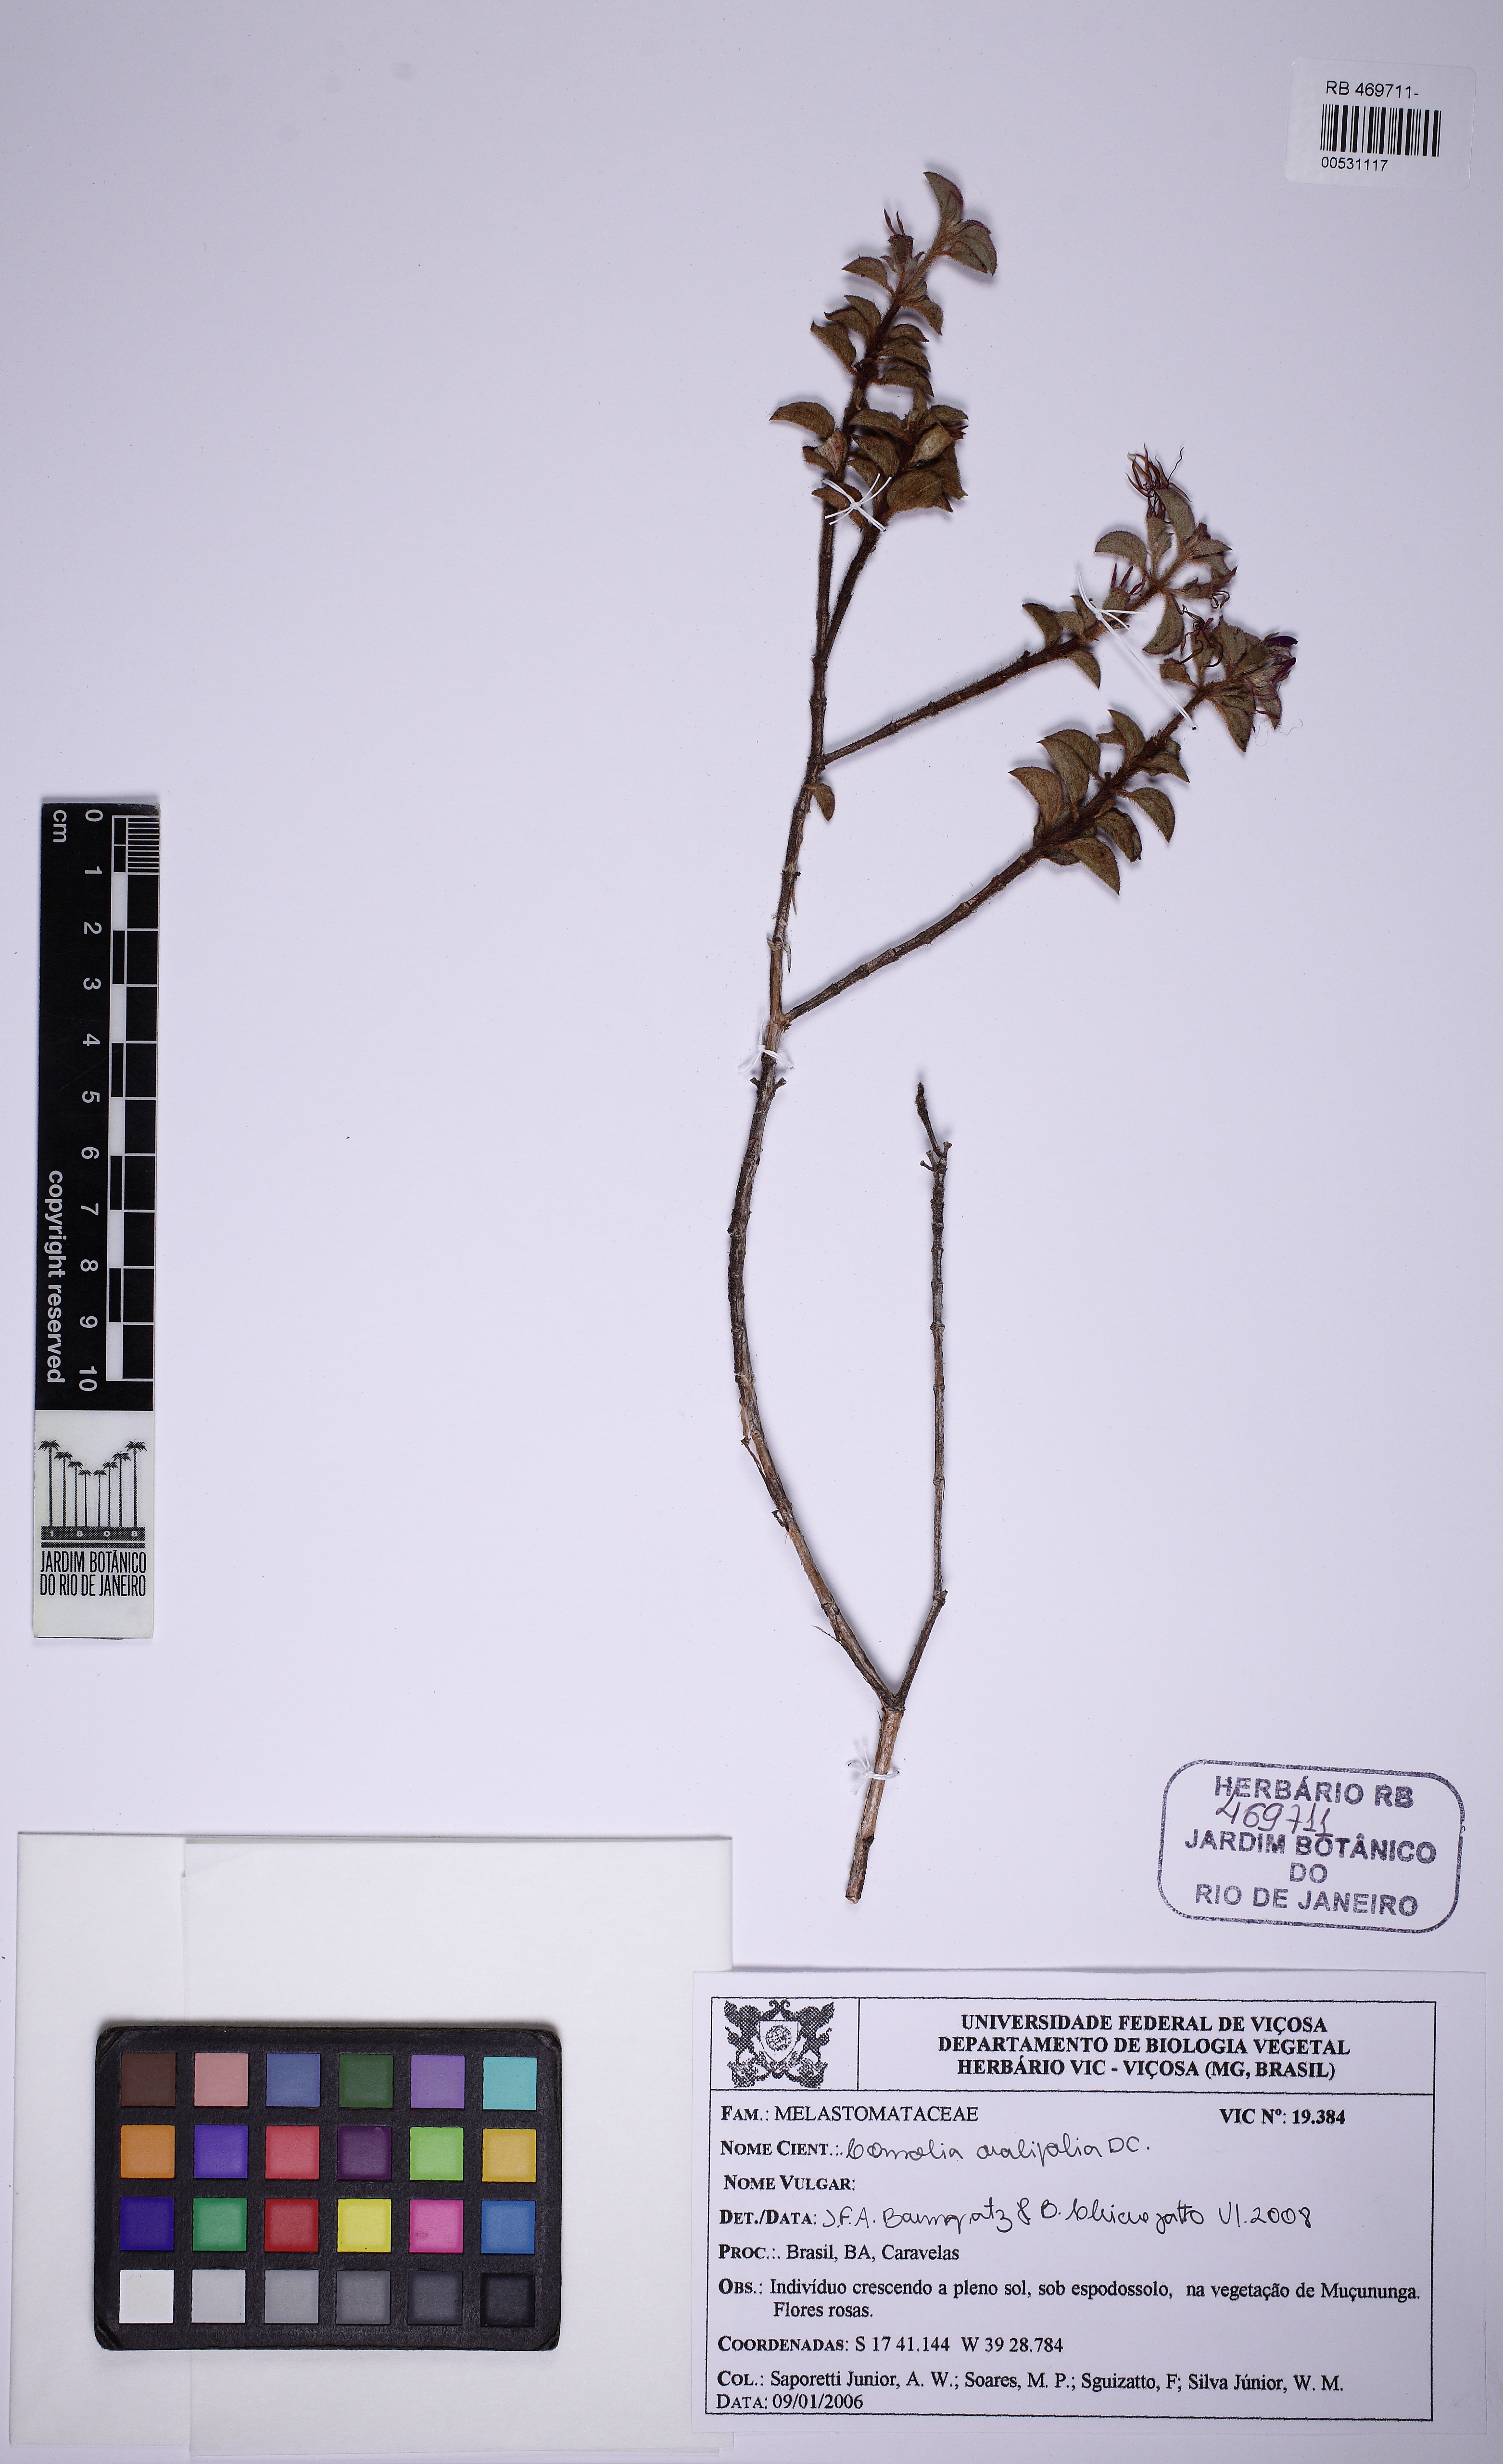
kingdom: Plantae
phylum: Tracheophyta
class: Magnoliopsida
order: Myrtales
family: Melastomataceae
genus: Comolia
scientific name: Comolia ovalifolia
